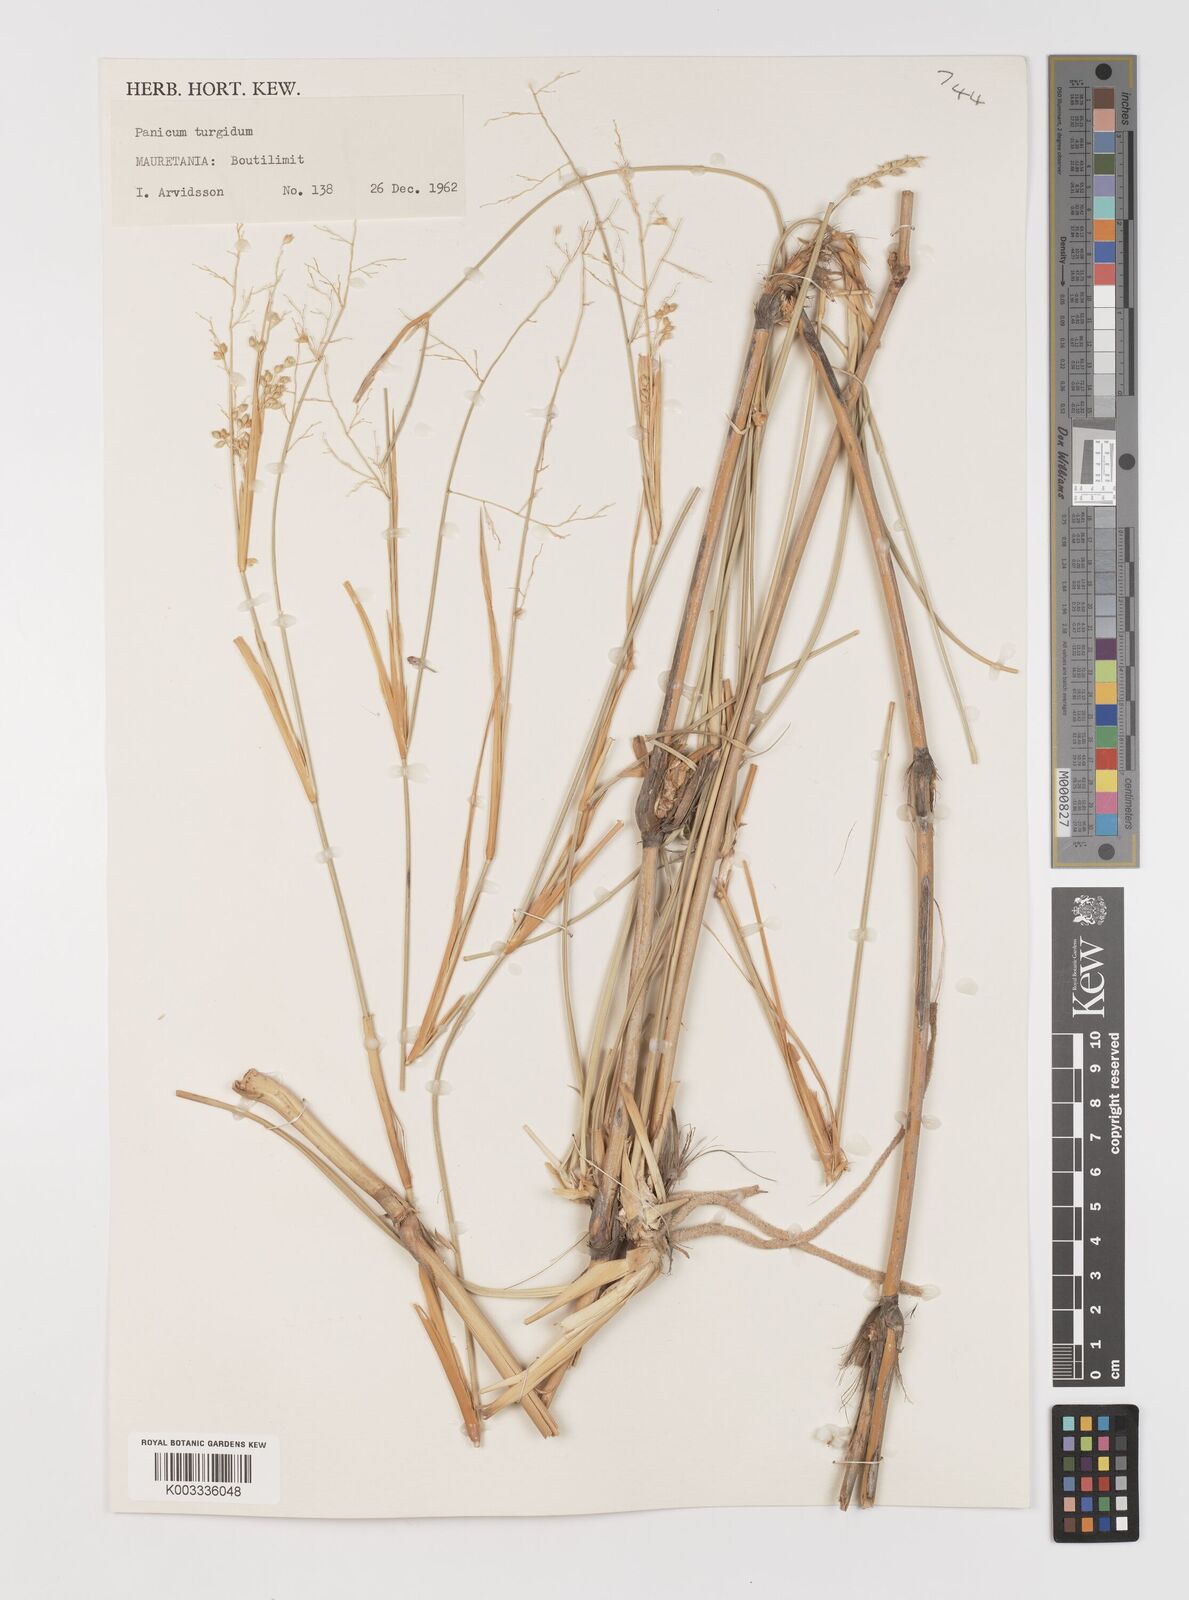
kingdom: Plantae
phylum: Tracheophyta
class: Liliopsida
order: Poales
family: Poaceae
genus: Panicum
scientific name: Panicum turgidum
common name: Desert grass
